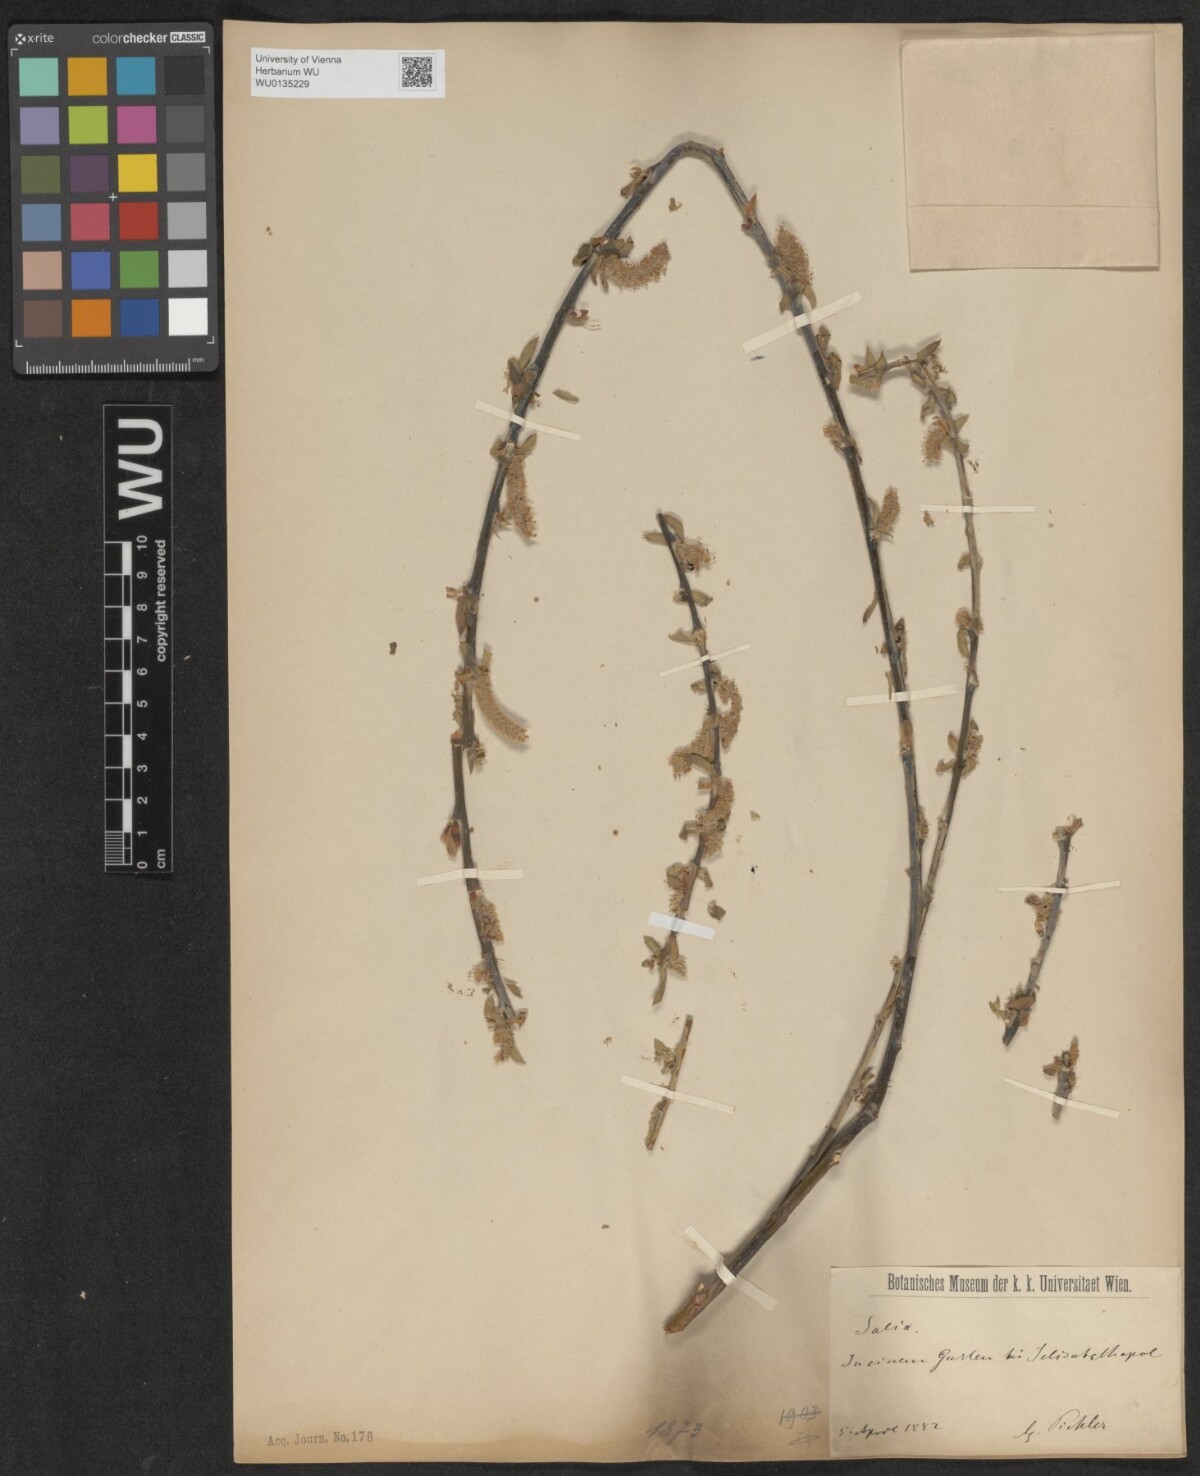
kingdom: Plantae
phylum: Tracheophyta
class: Magnoliopsida
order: Malpighiales
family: Salicaceae
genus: Salix
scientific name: Salix babylonica
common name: Weeping willow
